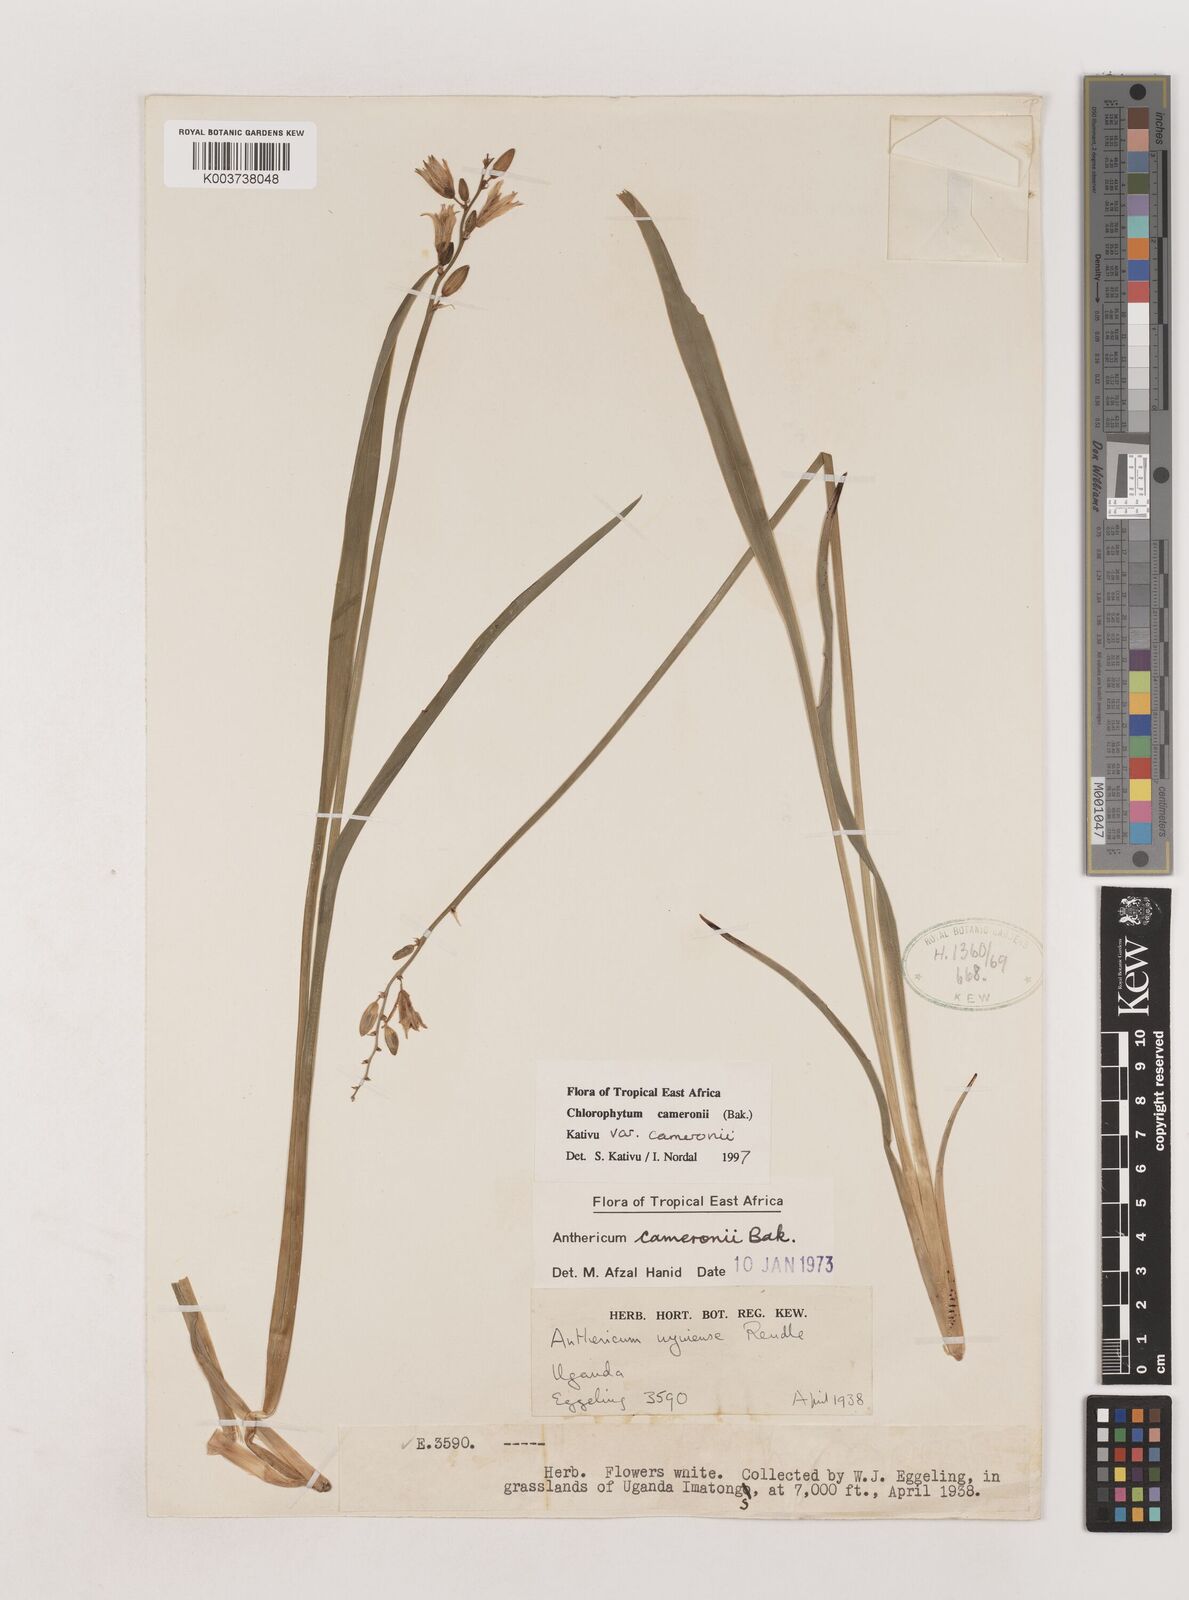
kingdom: Plantae
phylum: Tracheophyta
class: Liliopsida
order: Asparagales
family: Asparagaceae
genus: Chlorophytum
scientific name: Chlorophytum cameronii
